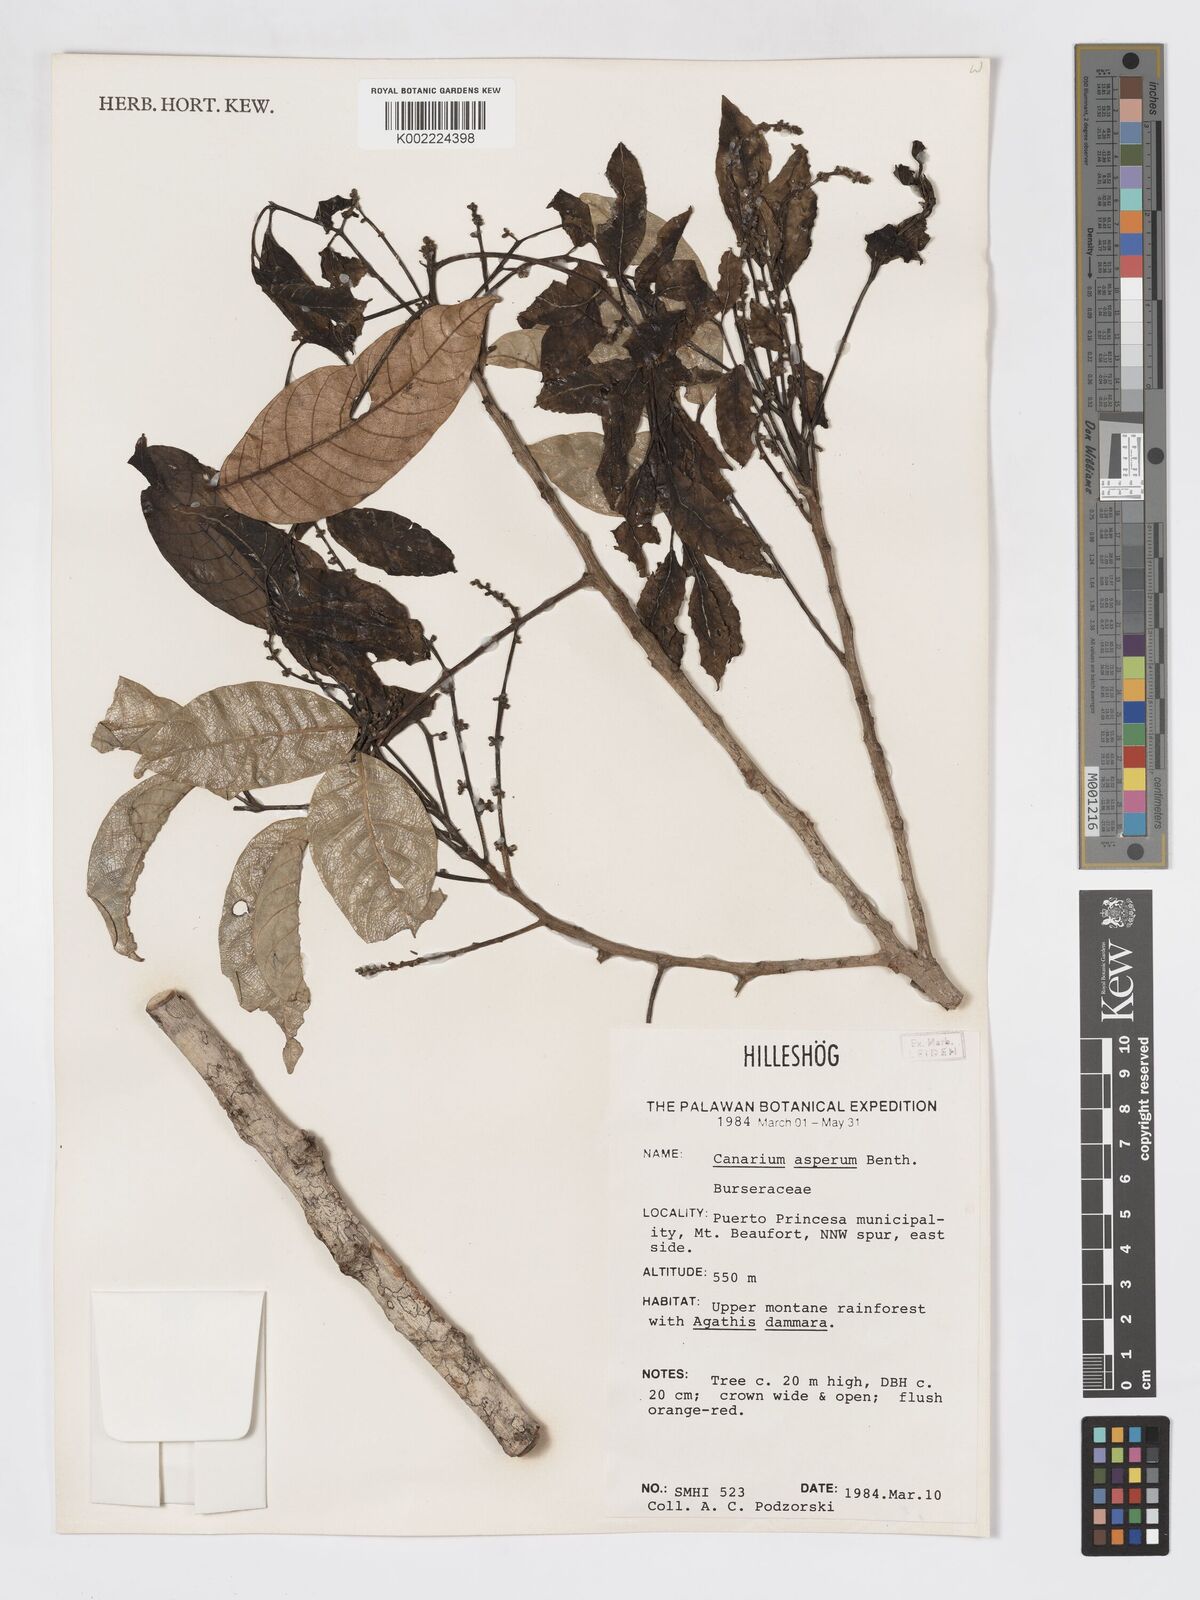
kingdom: Plantae
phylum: Tracheophyta
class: Magnoliopsida
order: Sapindales
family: Burseraceae
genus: Canarium
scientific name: Canarium asperum
